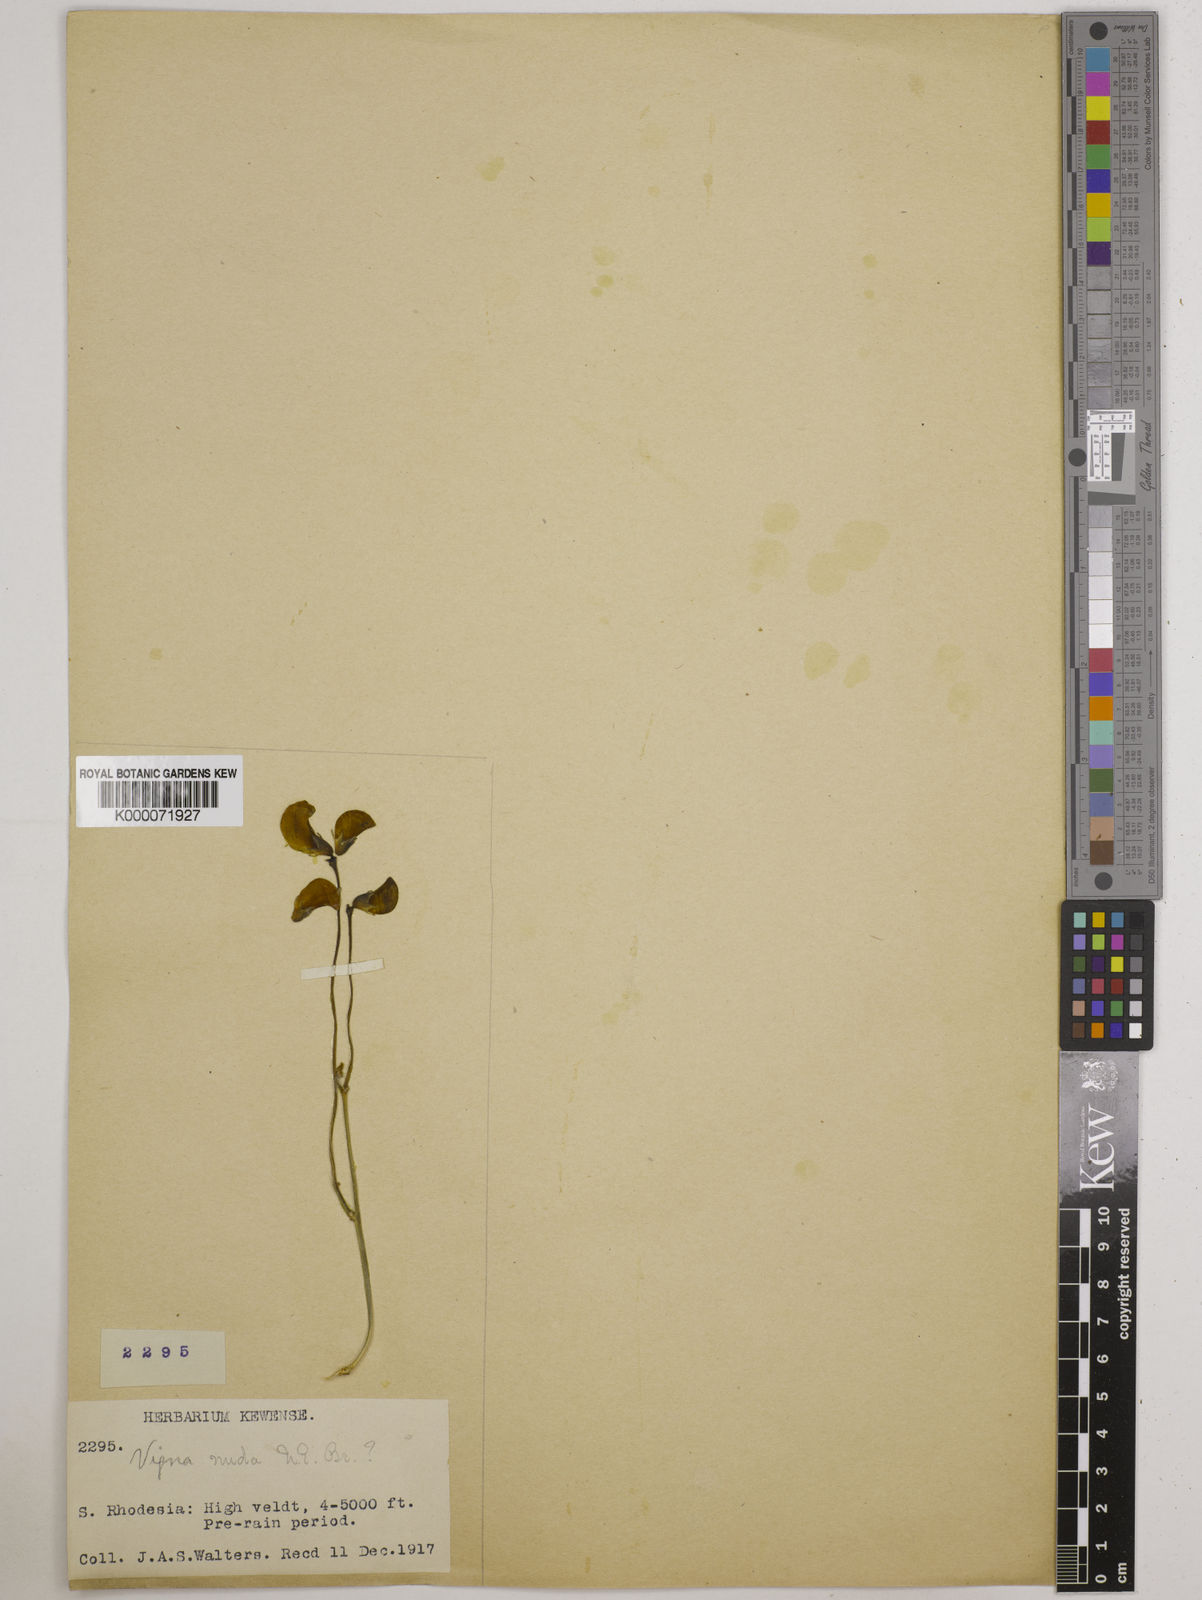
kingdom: Plantae
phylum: Tracheophyta
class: Magnoliopsida
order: Fabales
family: Fabaceae
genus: Vigna
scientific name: Vigna antunesii
